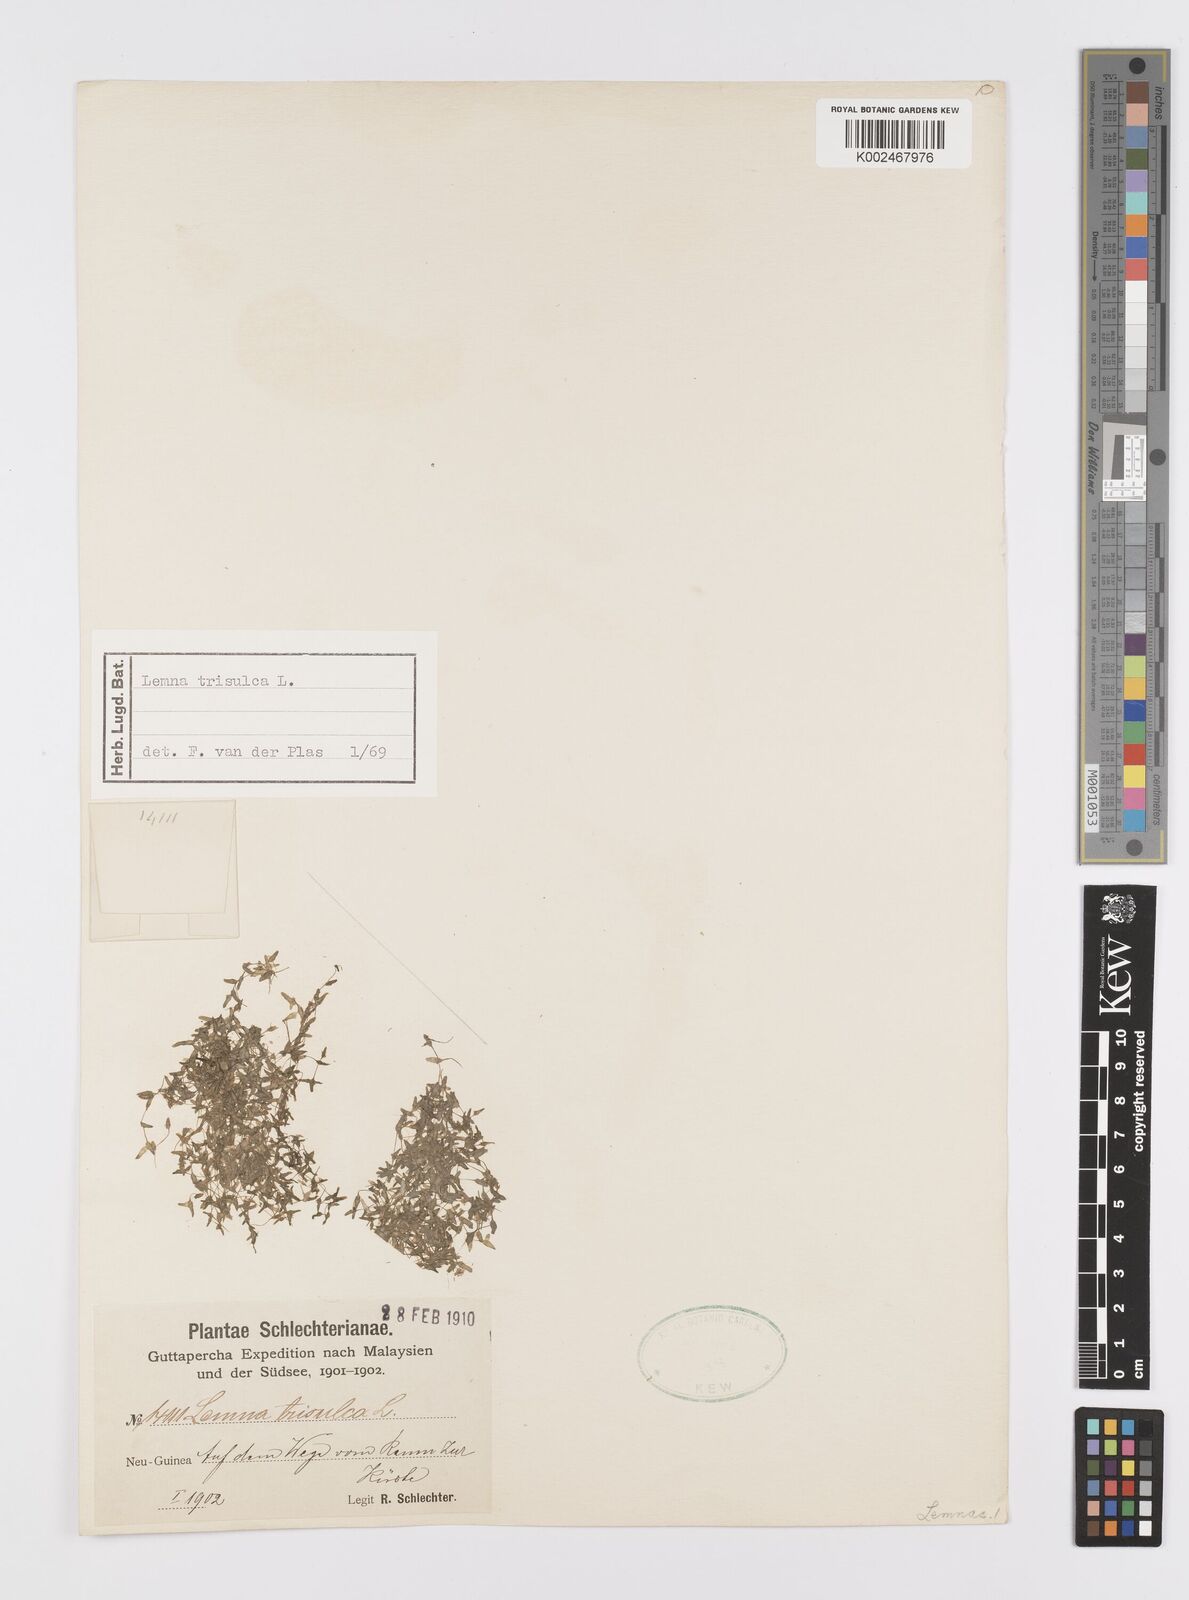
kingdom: Plantae
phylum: Tracheophyta
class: Liliopsida
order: Alismatales
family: Araceae
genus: Lemna
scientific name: Lemna trisulca
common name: Ivy-leaved duckweed
